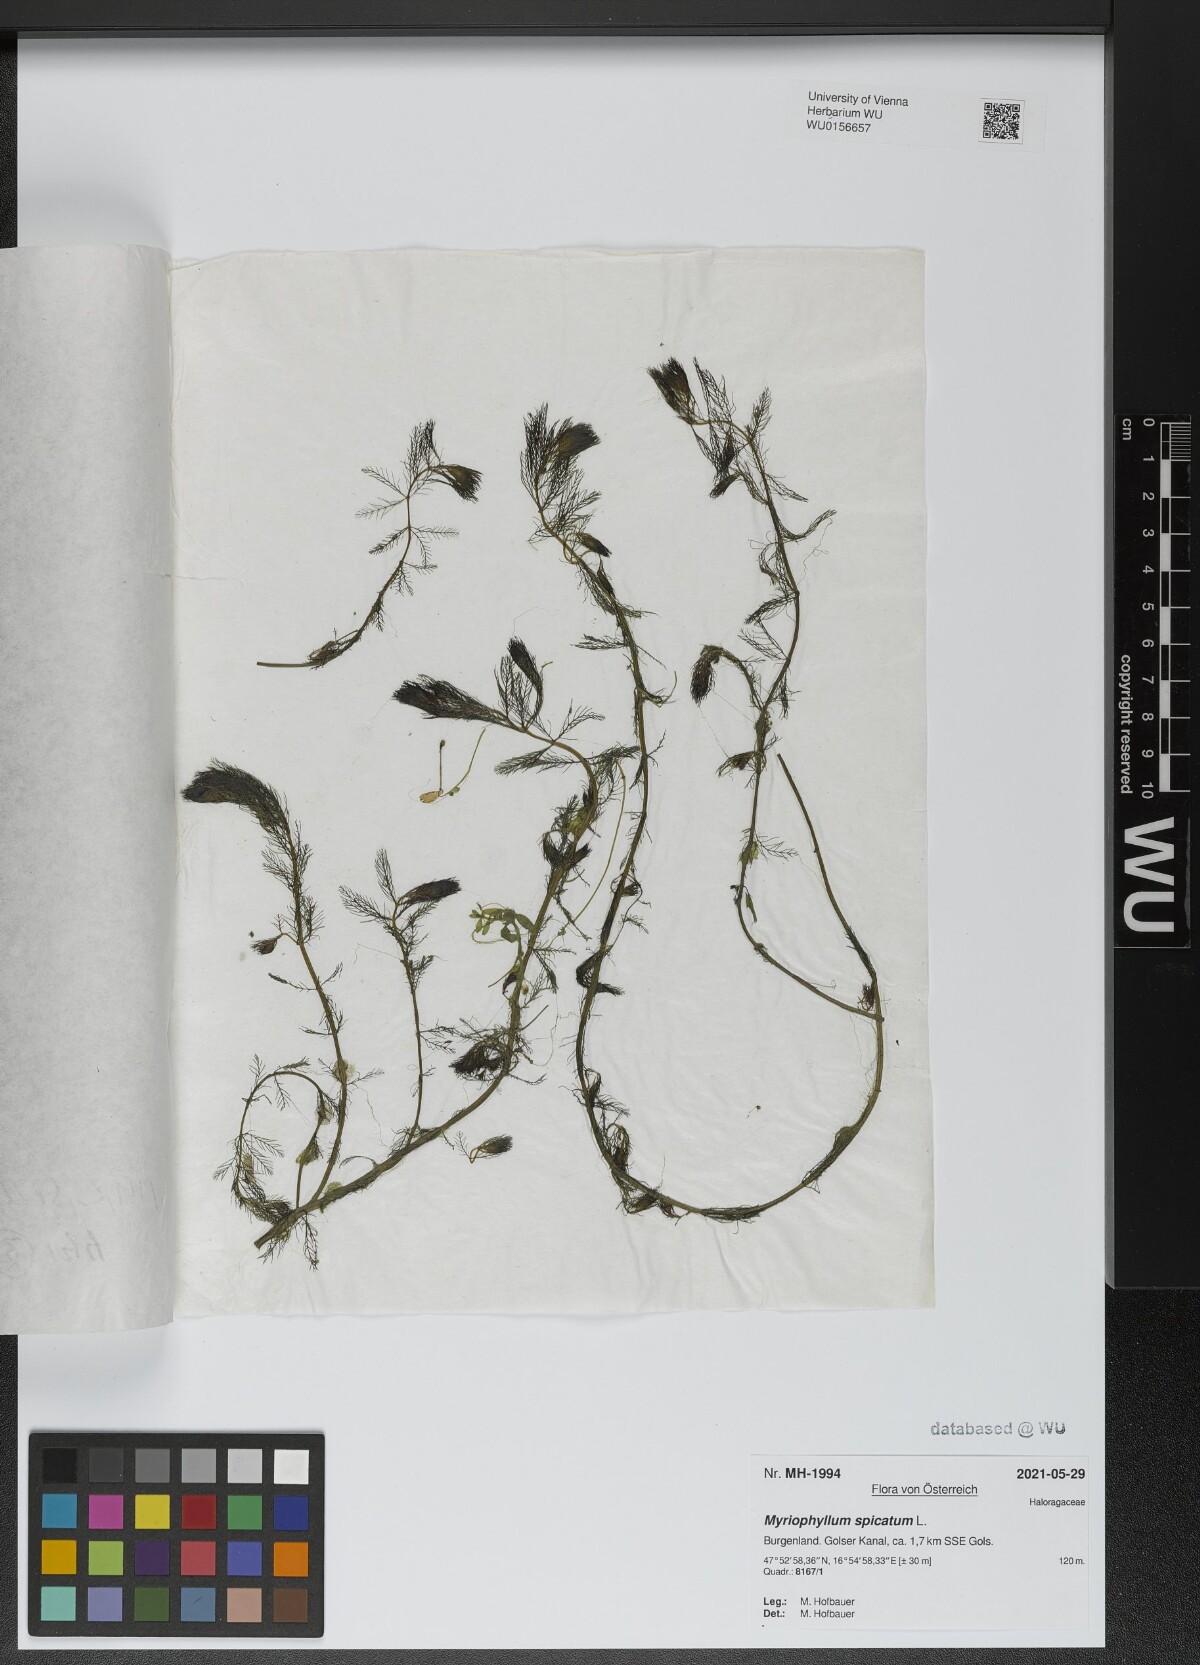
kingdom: Plantae
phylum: Tracheophyta
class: Magnoliopsida
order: Saxifragales
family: Haloragaceae
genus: Myriophyllum
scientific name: Myriophyllum spicatum
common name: Spiked water-milfoil
